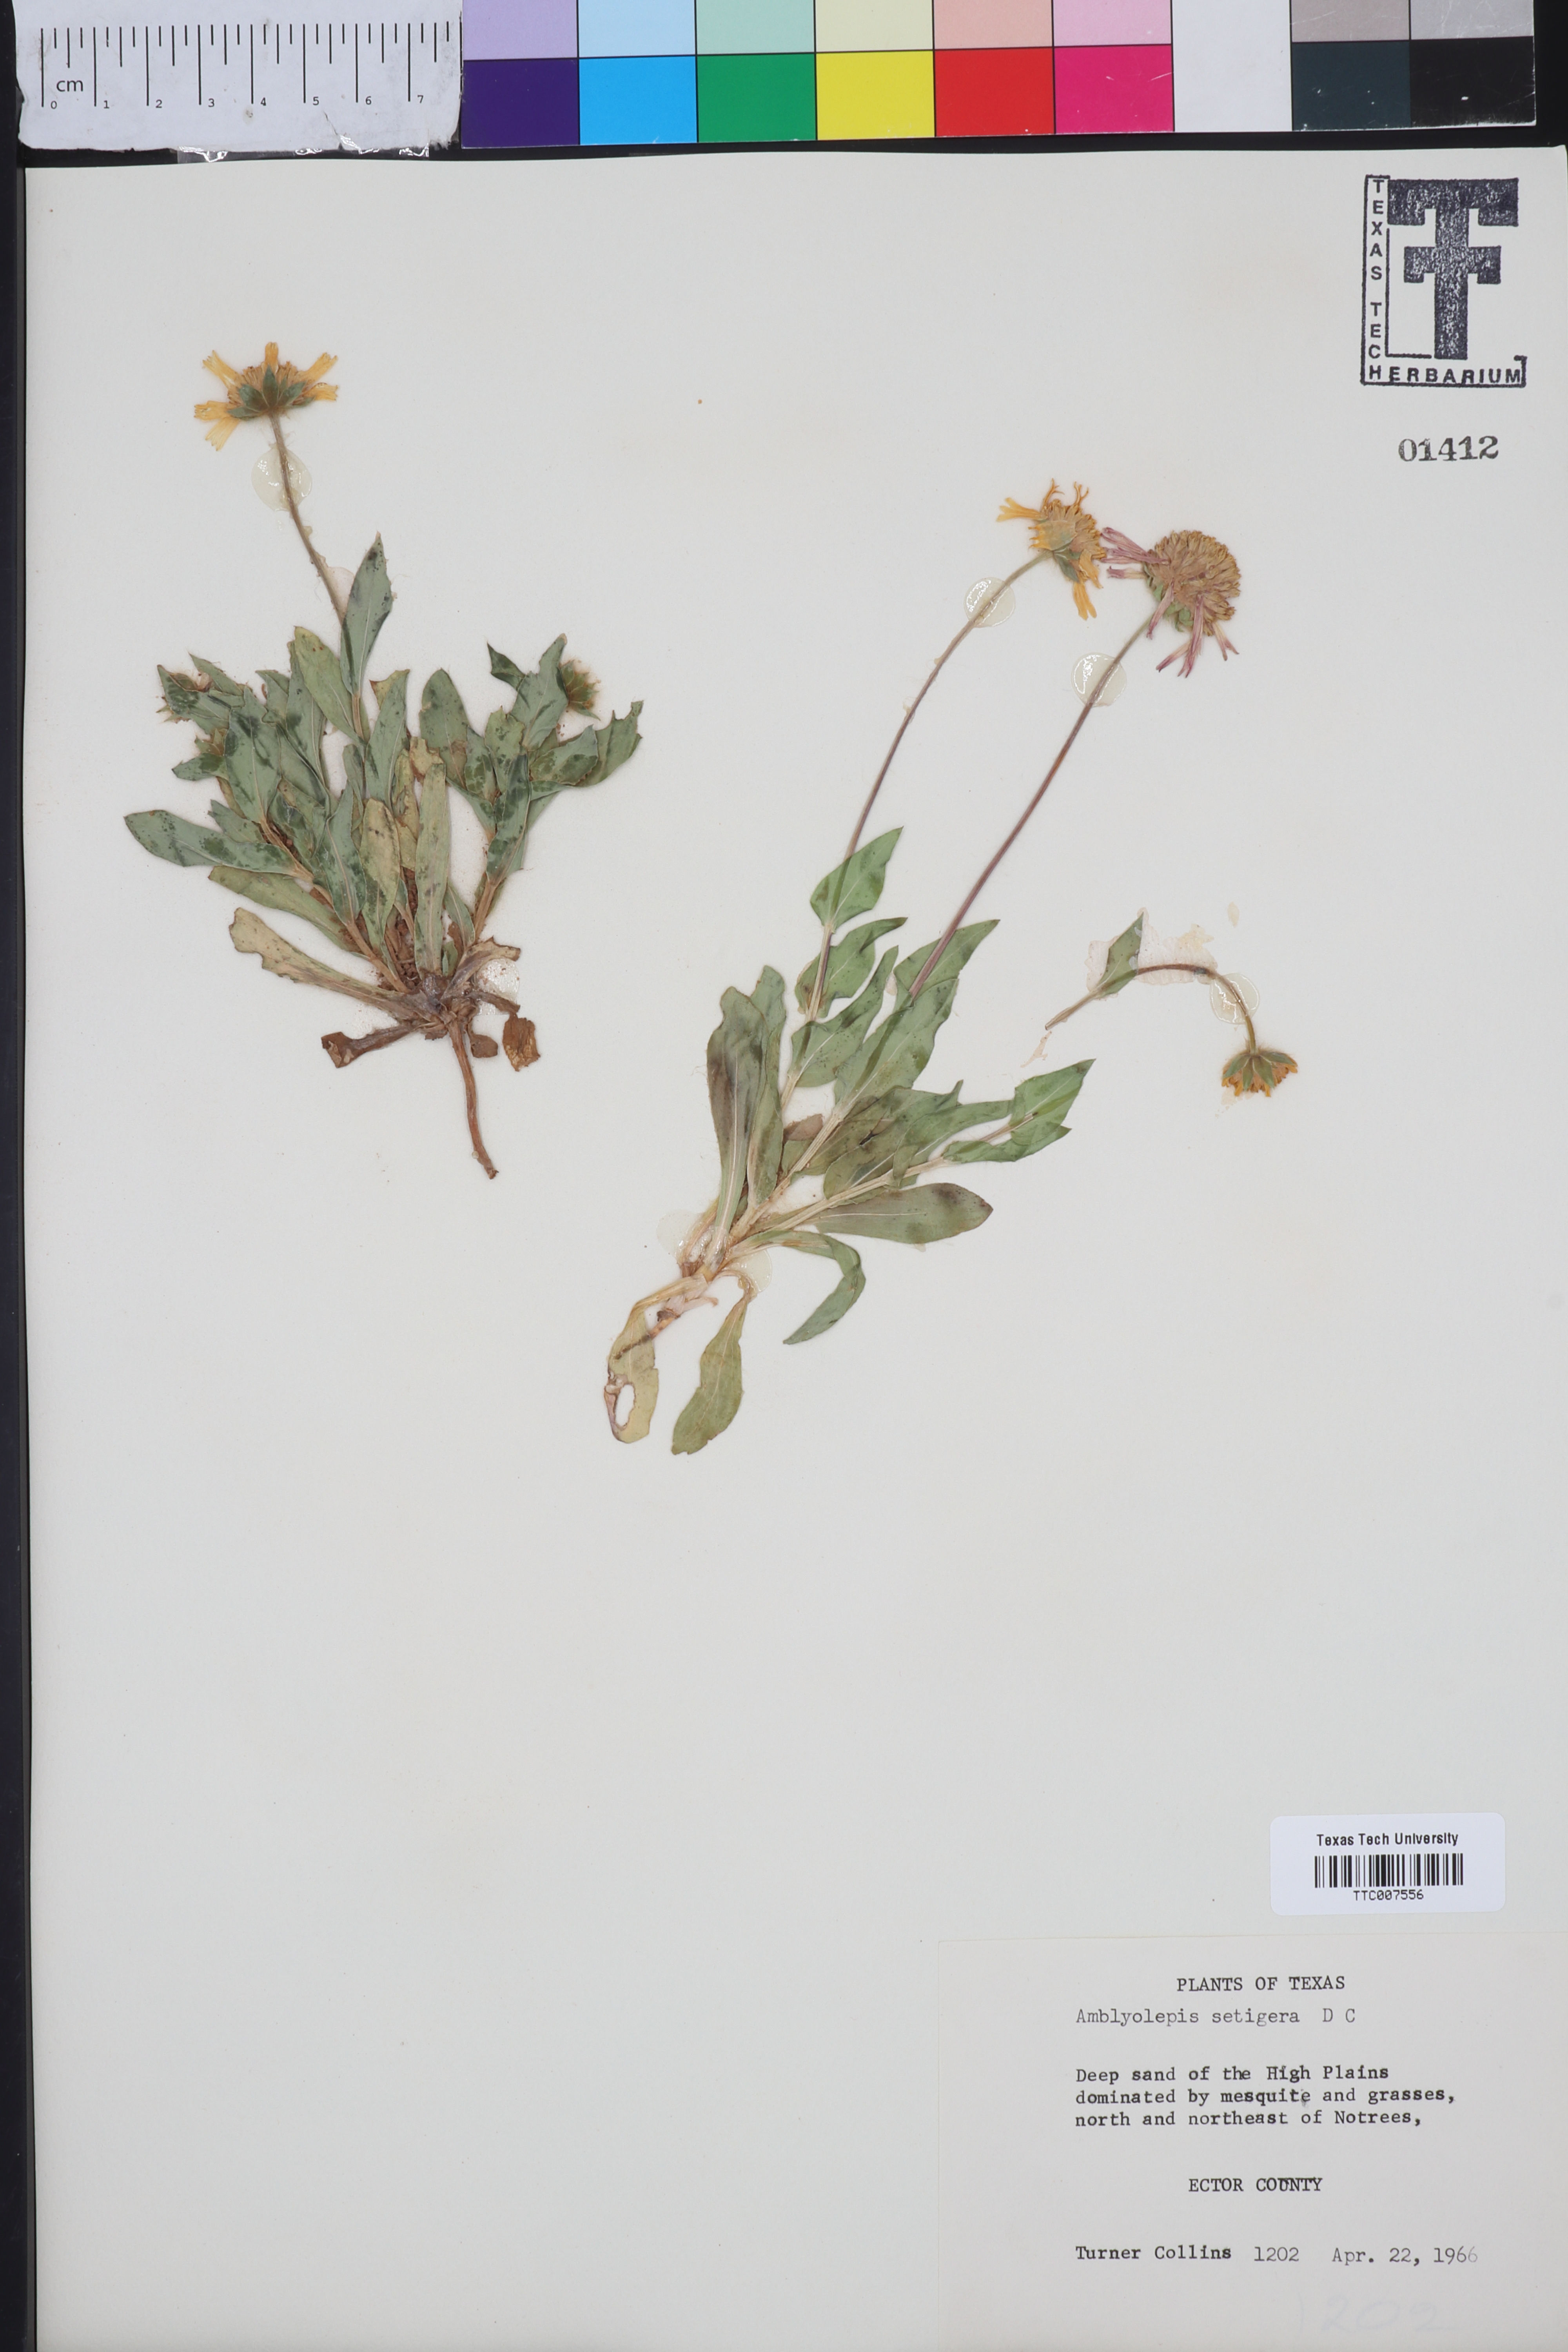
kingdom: Plantae
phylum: Tracheophyta
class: Magnoliopsida
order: Asterales
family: Asteraceae
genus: Amblyolepis
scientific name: Amblyolepis setigera
